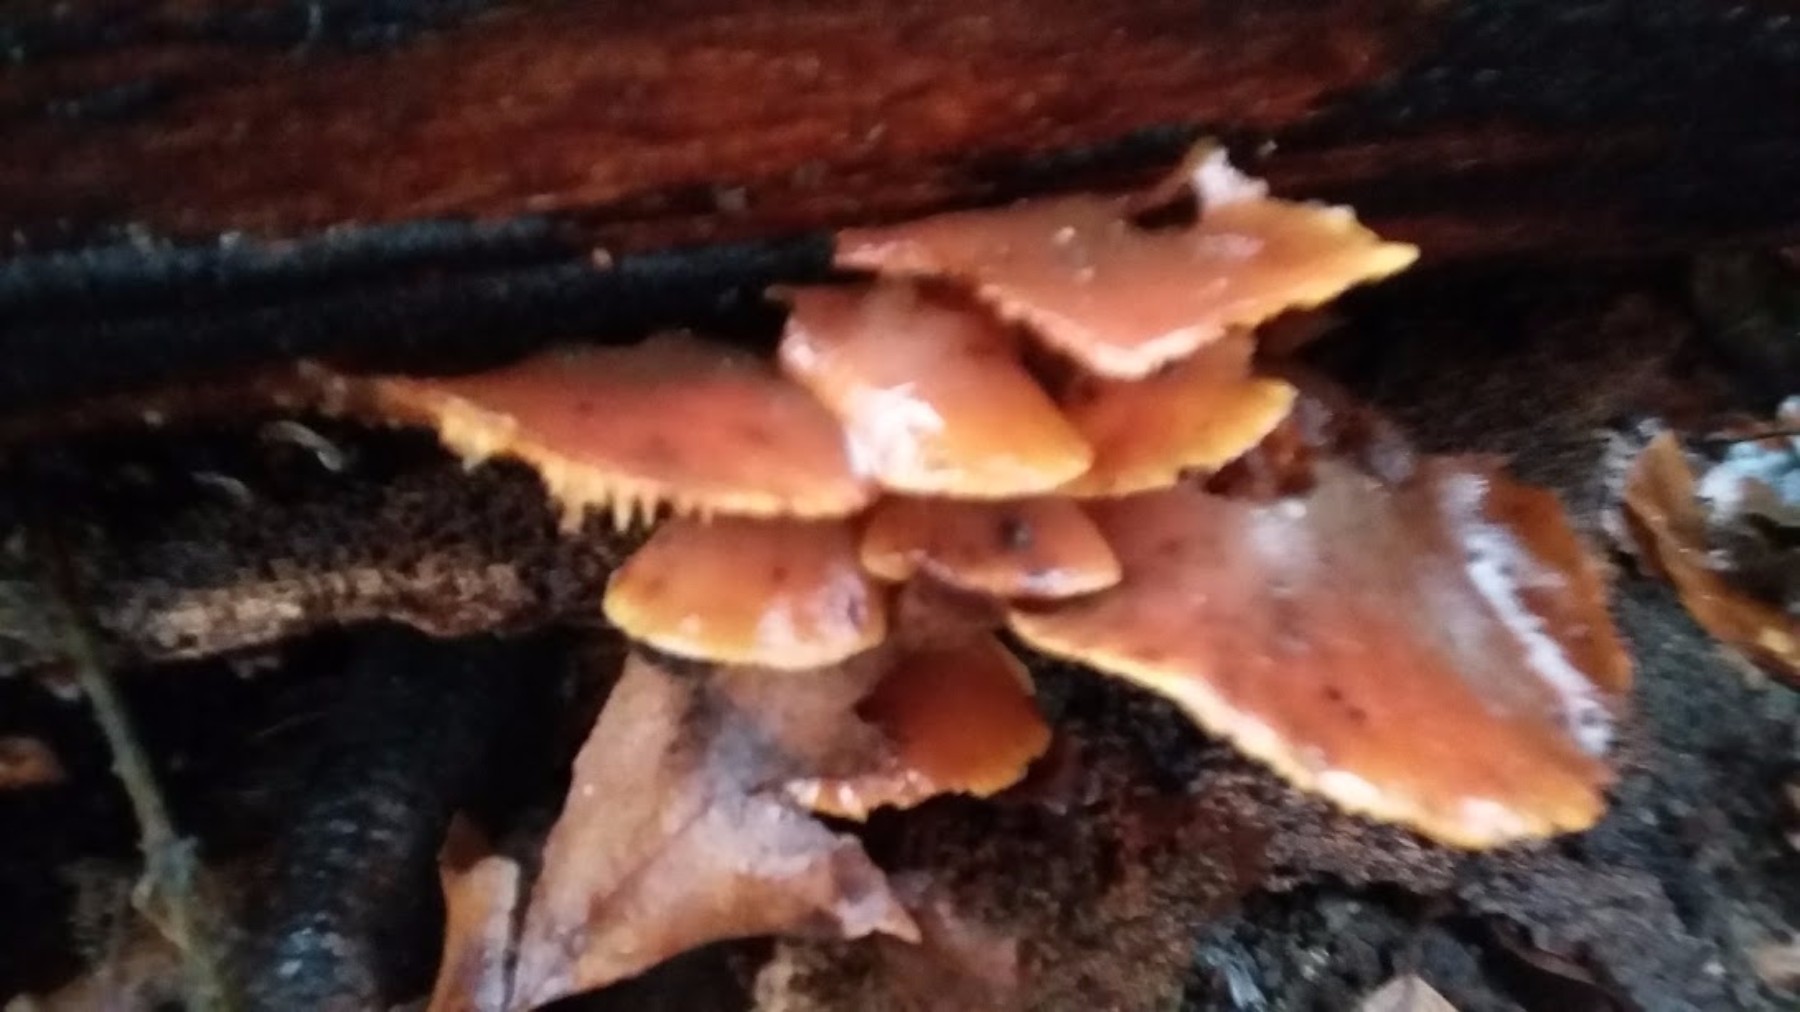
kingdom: Fungi
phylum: Basidiomycota
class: Agaricomycetes
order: Agaricales
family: Physalacriaceae
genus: Flammulina
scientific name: Flammulina velutipes
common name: gul fløjlsfod
